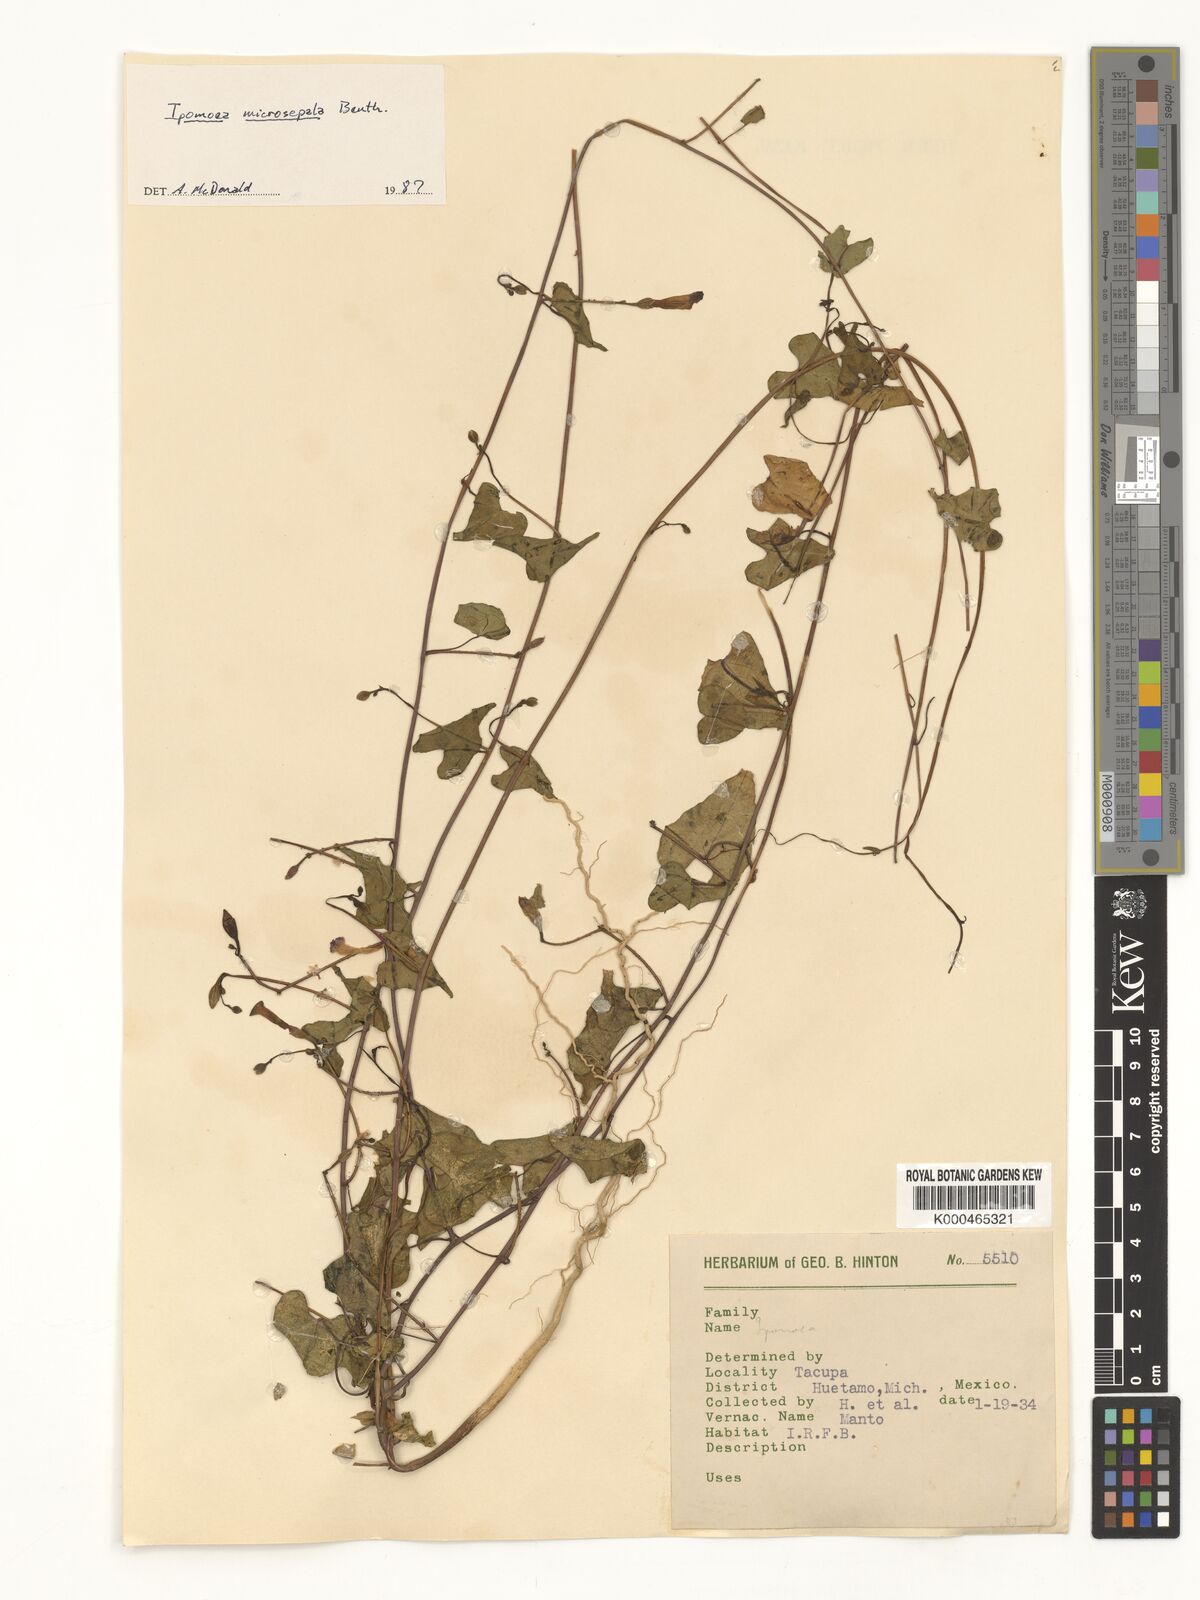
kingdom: Plantae
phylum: Tracheophyta
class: Magnoliopsida
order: Solanales
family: Convolvulaceae
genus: Ipomoea
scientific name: Ipomoea microsepala
